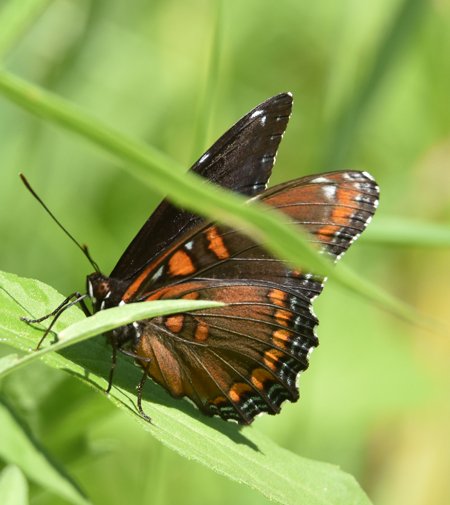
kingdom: Animalia
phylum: Arthropoda
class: Insecta
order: Lepidoptera
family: Nymphalidae
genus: Limenitis
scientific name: Limenitis astyanax
